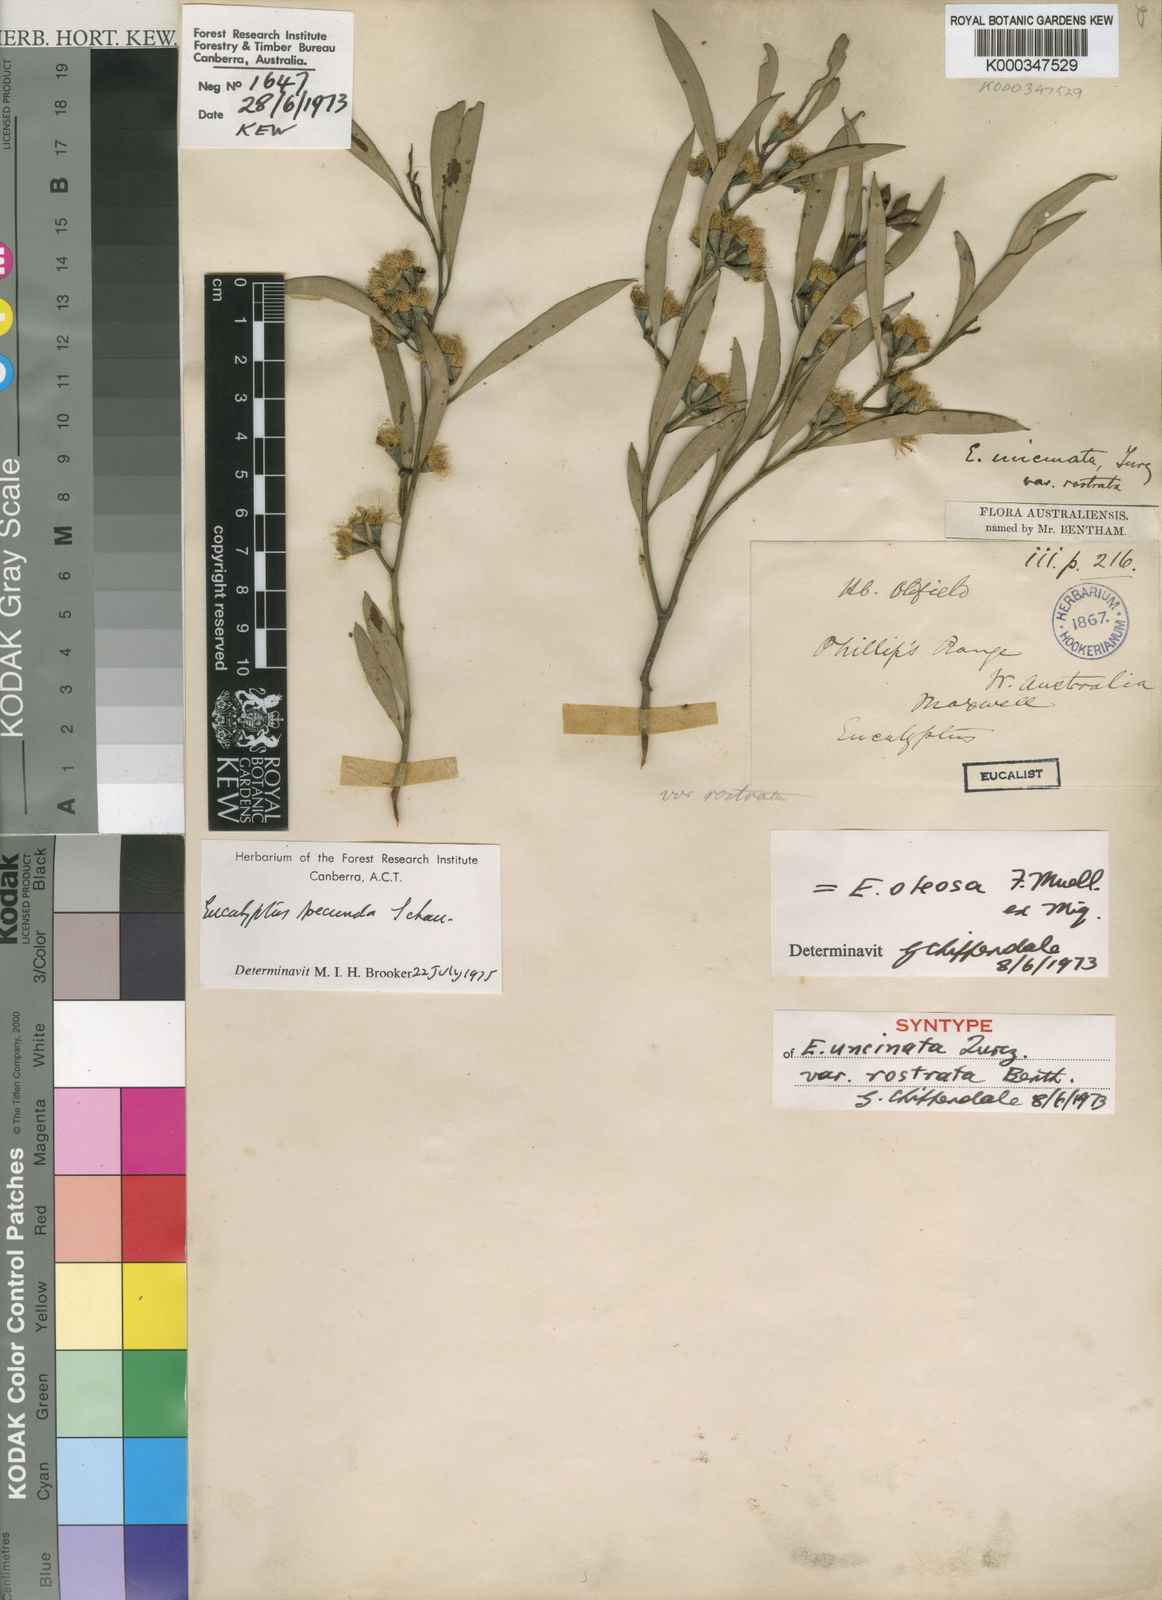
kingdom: Plantae
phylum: Tracheophyta
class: Magnoliopsida
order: Myrtales
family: Myrtaceae
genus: Eucalyptus
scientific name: Eucalyptus foecunda
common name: Freemantle mallee
